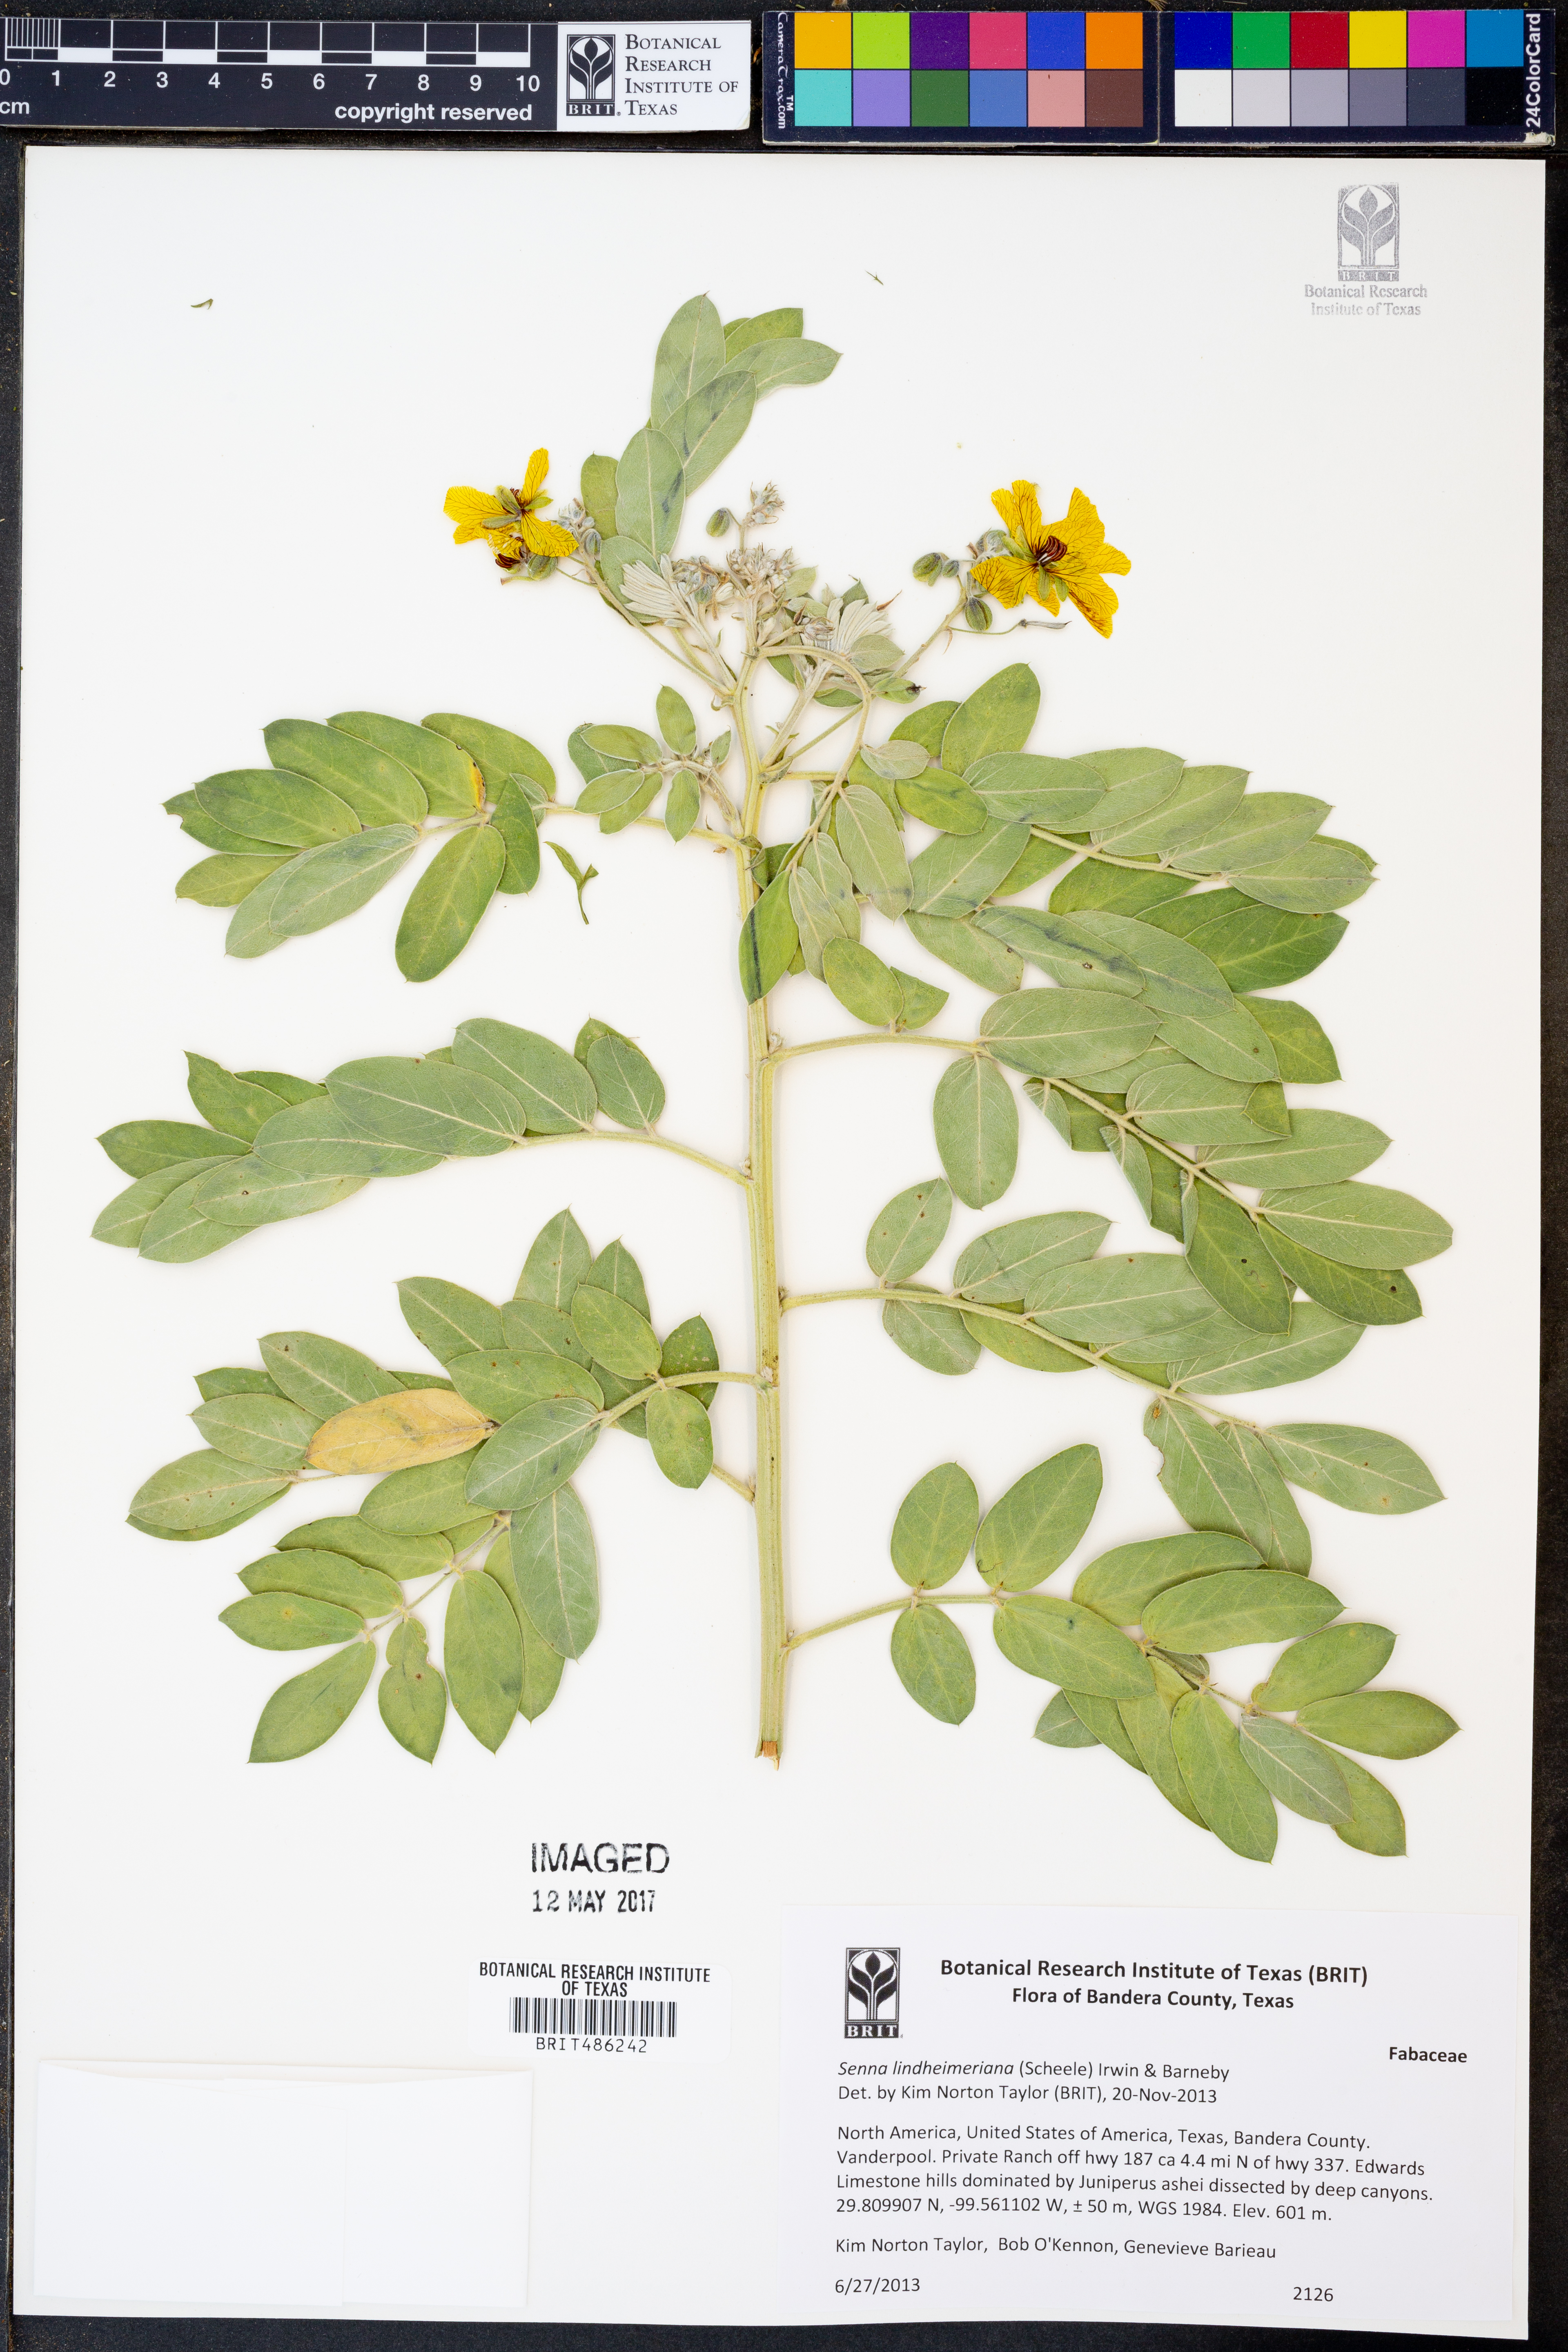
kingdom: Plantae
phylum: Tracheophyta
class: Magnoliopsida
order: Fabales
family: Fabaceae
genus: Senna
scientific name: Senna lindheimeriana
